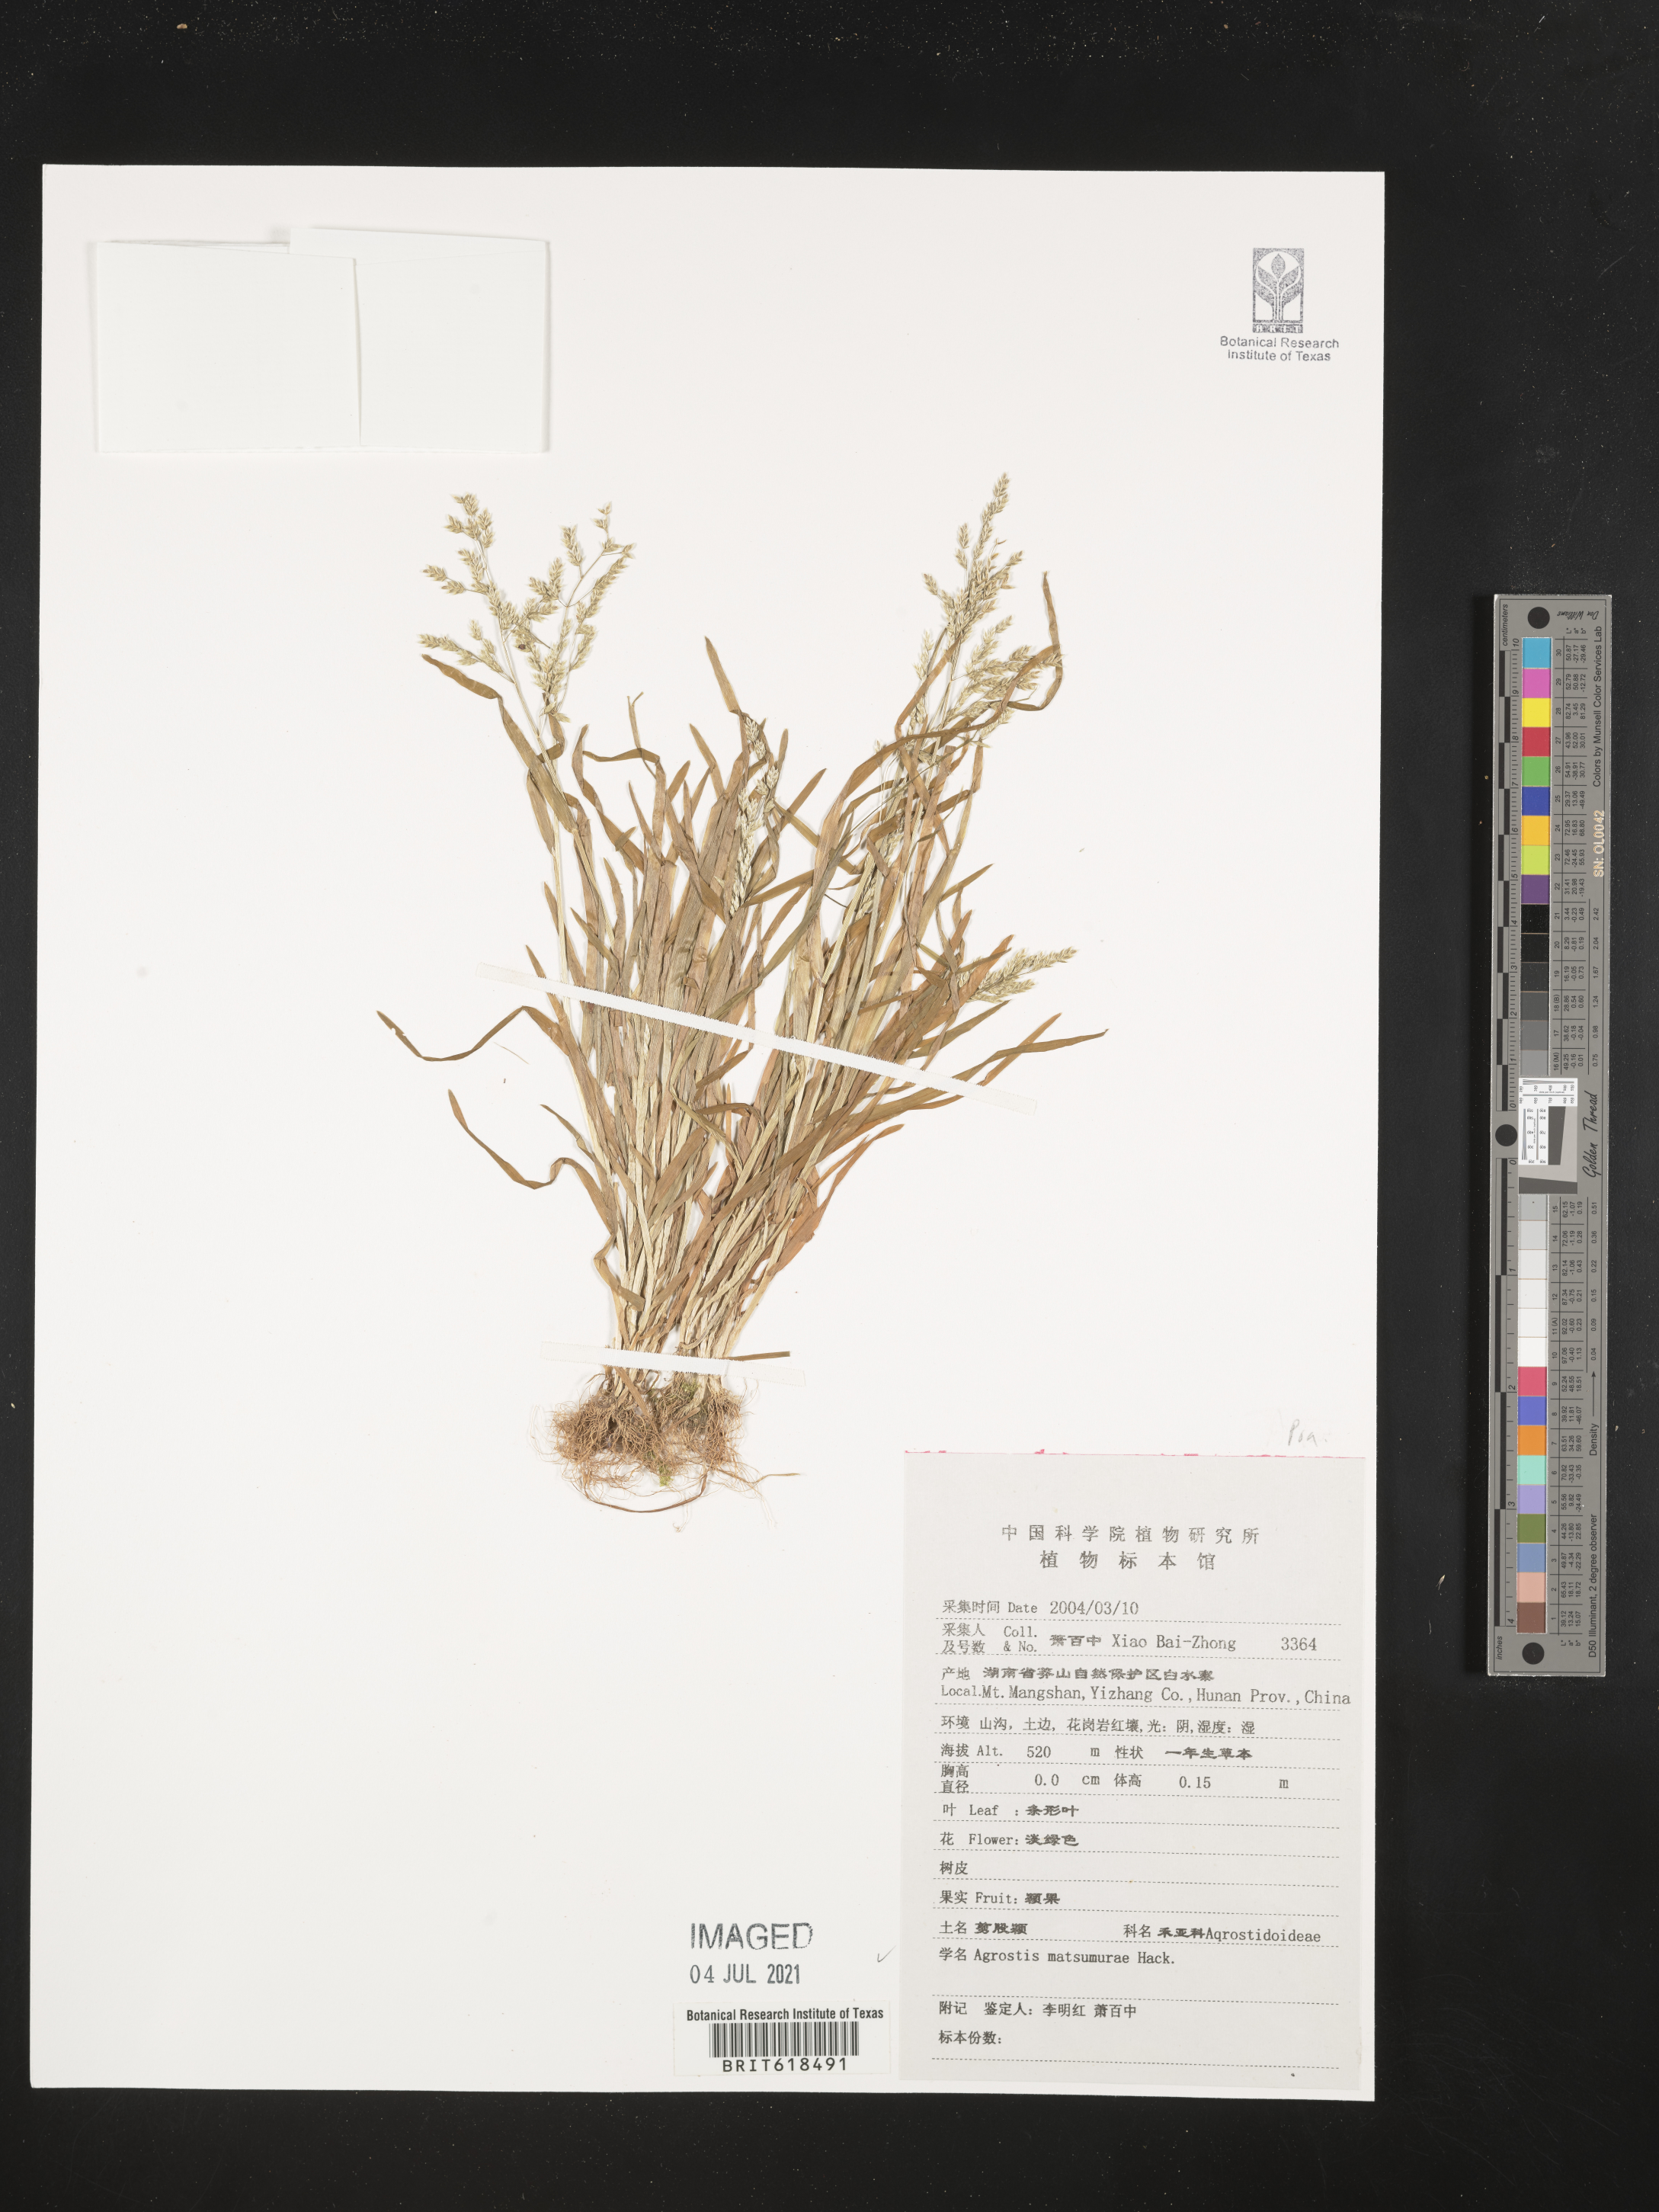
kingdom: Plantae
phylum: Tracheophyta
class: Liliopsida
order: Poales
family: Poaceae
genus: Agrostis
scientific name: Agrostis clavata
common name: Clavate bent
